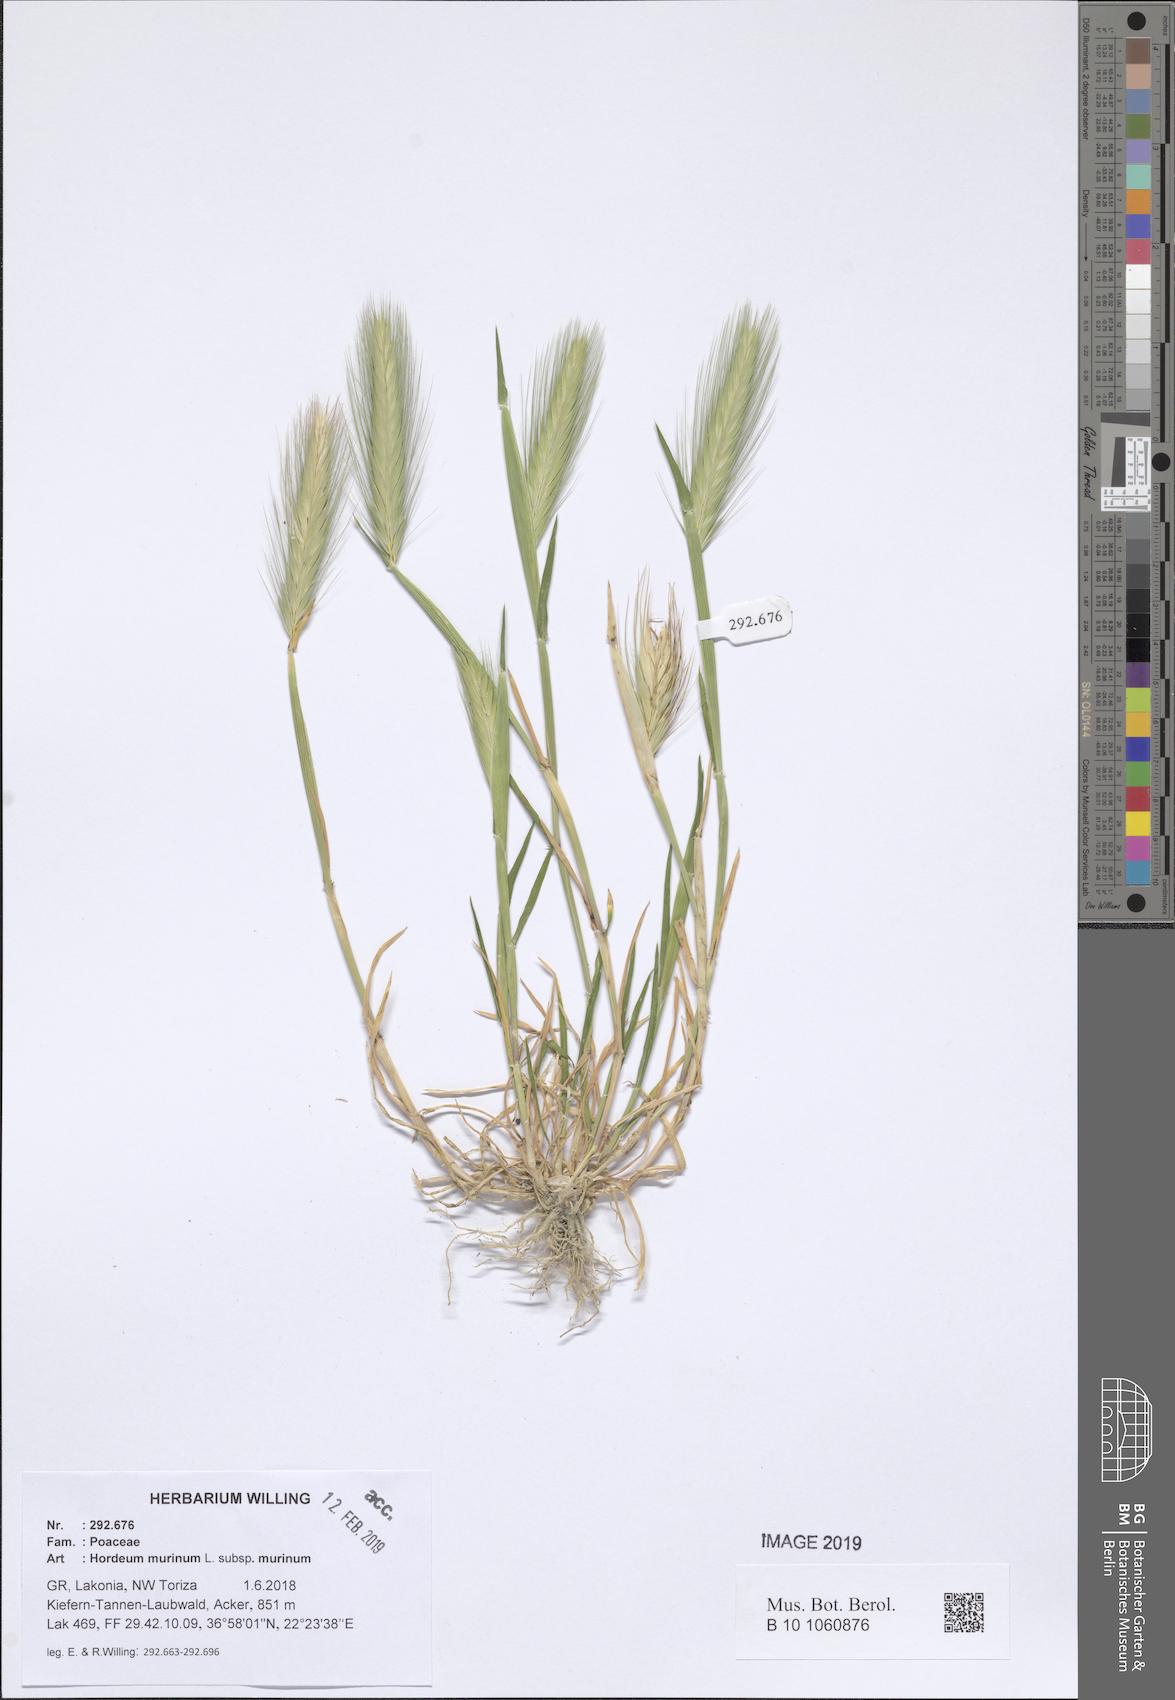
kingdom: Plantae
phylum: Tracheophyta
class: Liliopsida
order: Poales
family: Poaceae
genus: Hordeum
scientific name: Hordeum murinum
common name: Wall barley
